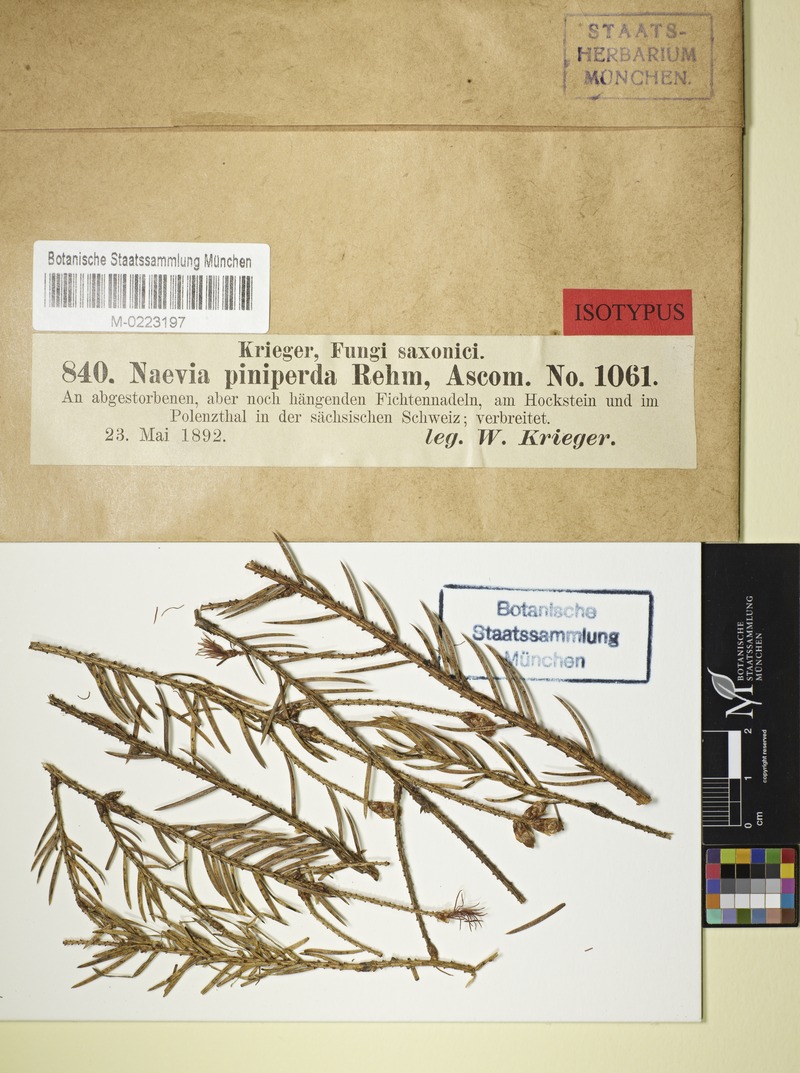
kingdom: Fungi
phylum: Ascomycota
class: Leotiomycetes
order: Helotiales
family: Cenangiaceae
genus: Sarcotrochila
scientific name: Sarcotrochila piniperda
